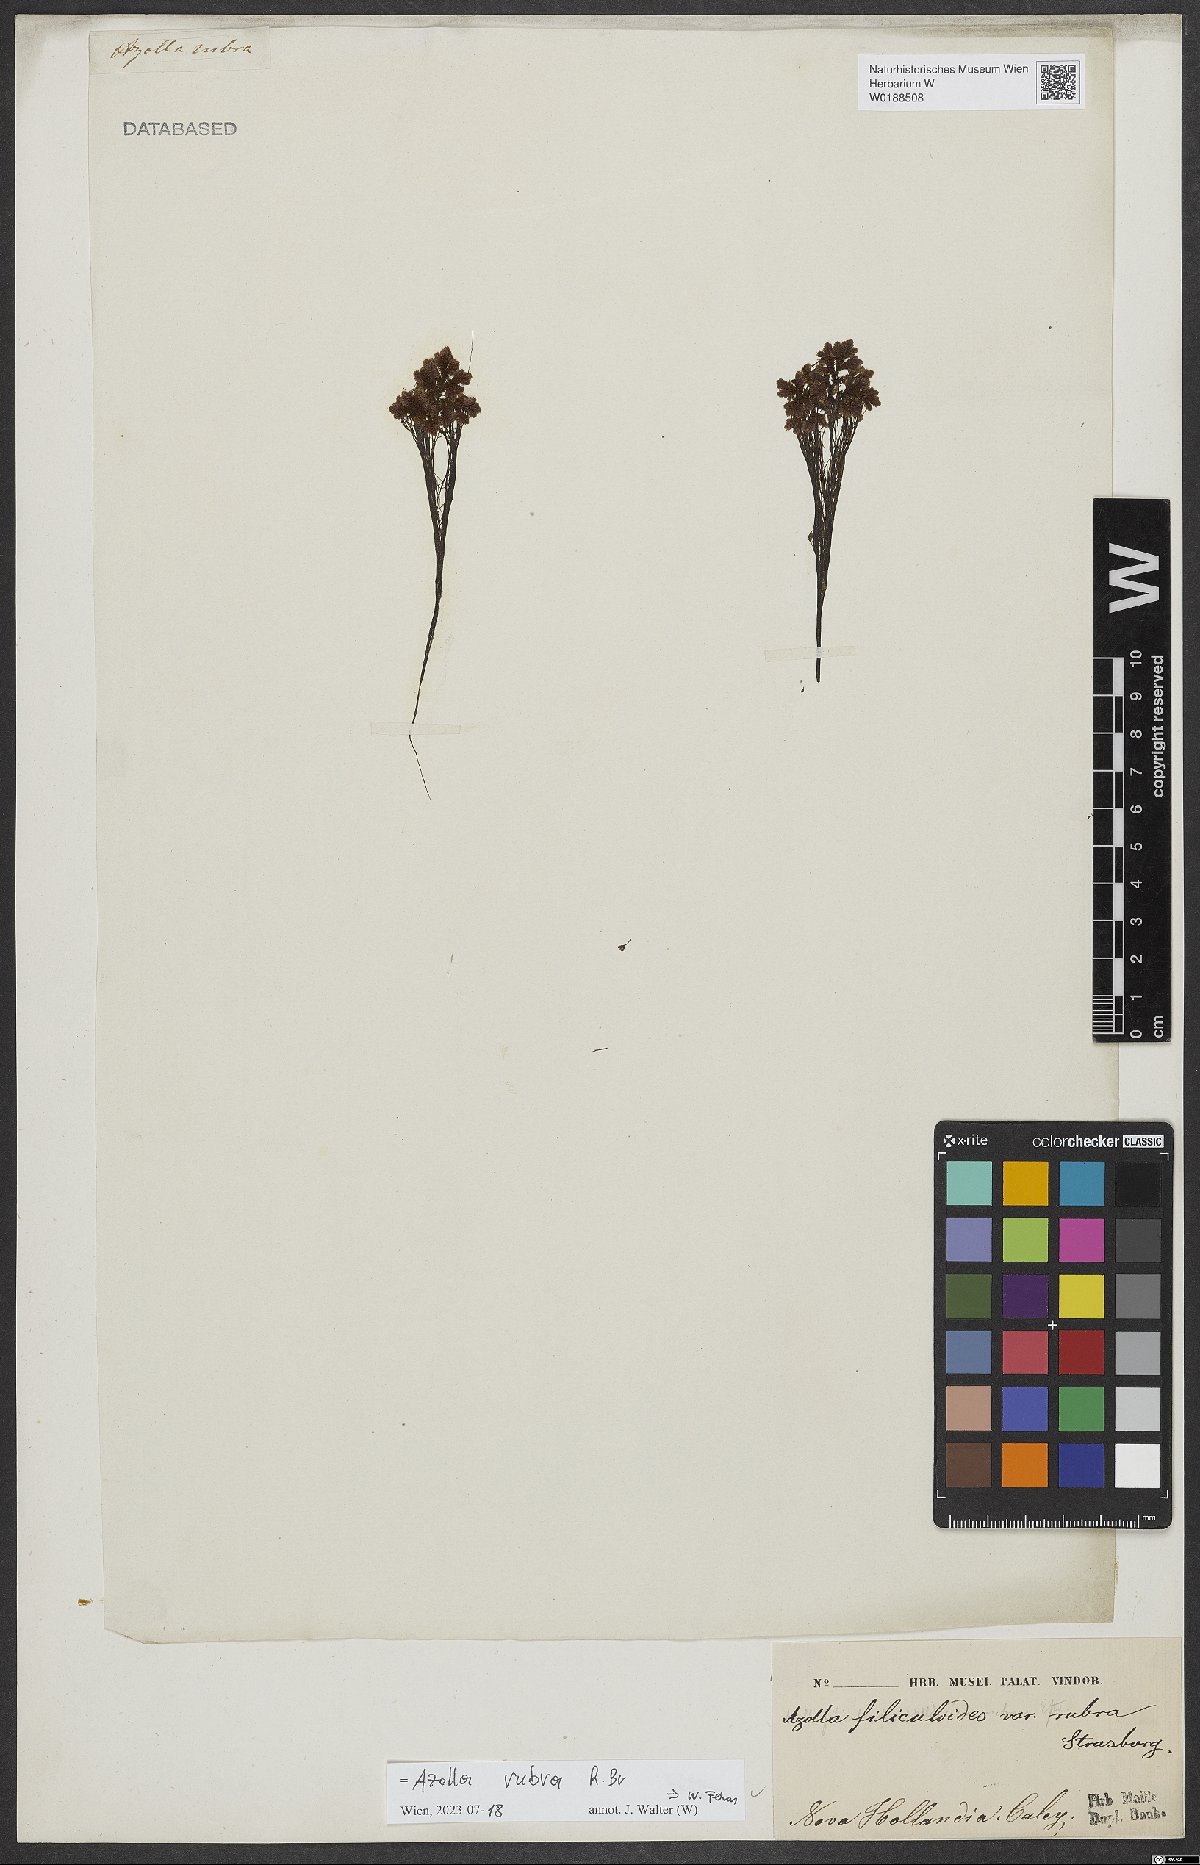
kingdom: Plantae
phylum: Tracheophyta
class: Polypodiopsida
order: Salviniales
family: Salviniaceae
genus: Azolla
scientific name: Azolla rubra
